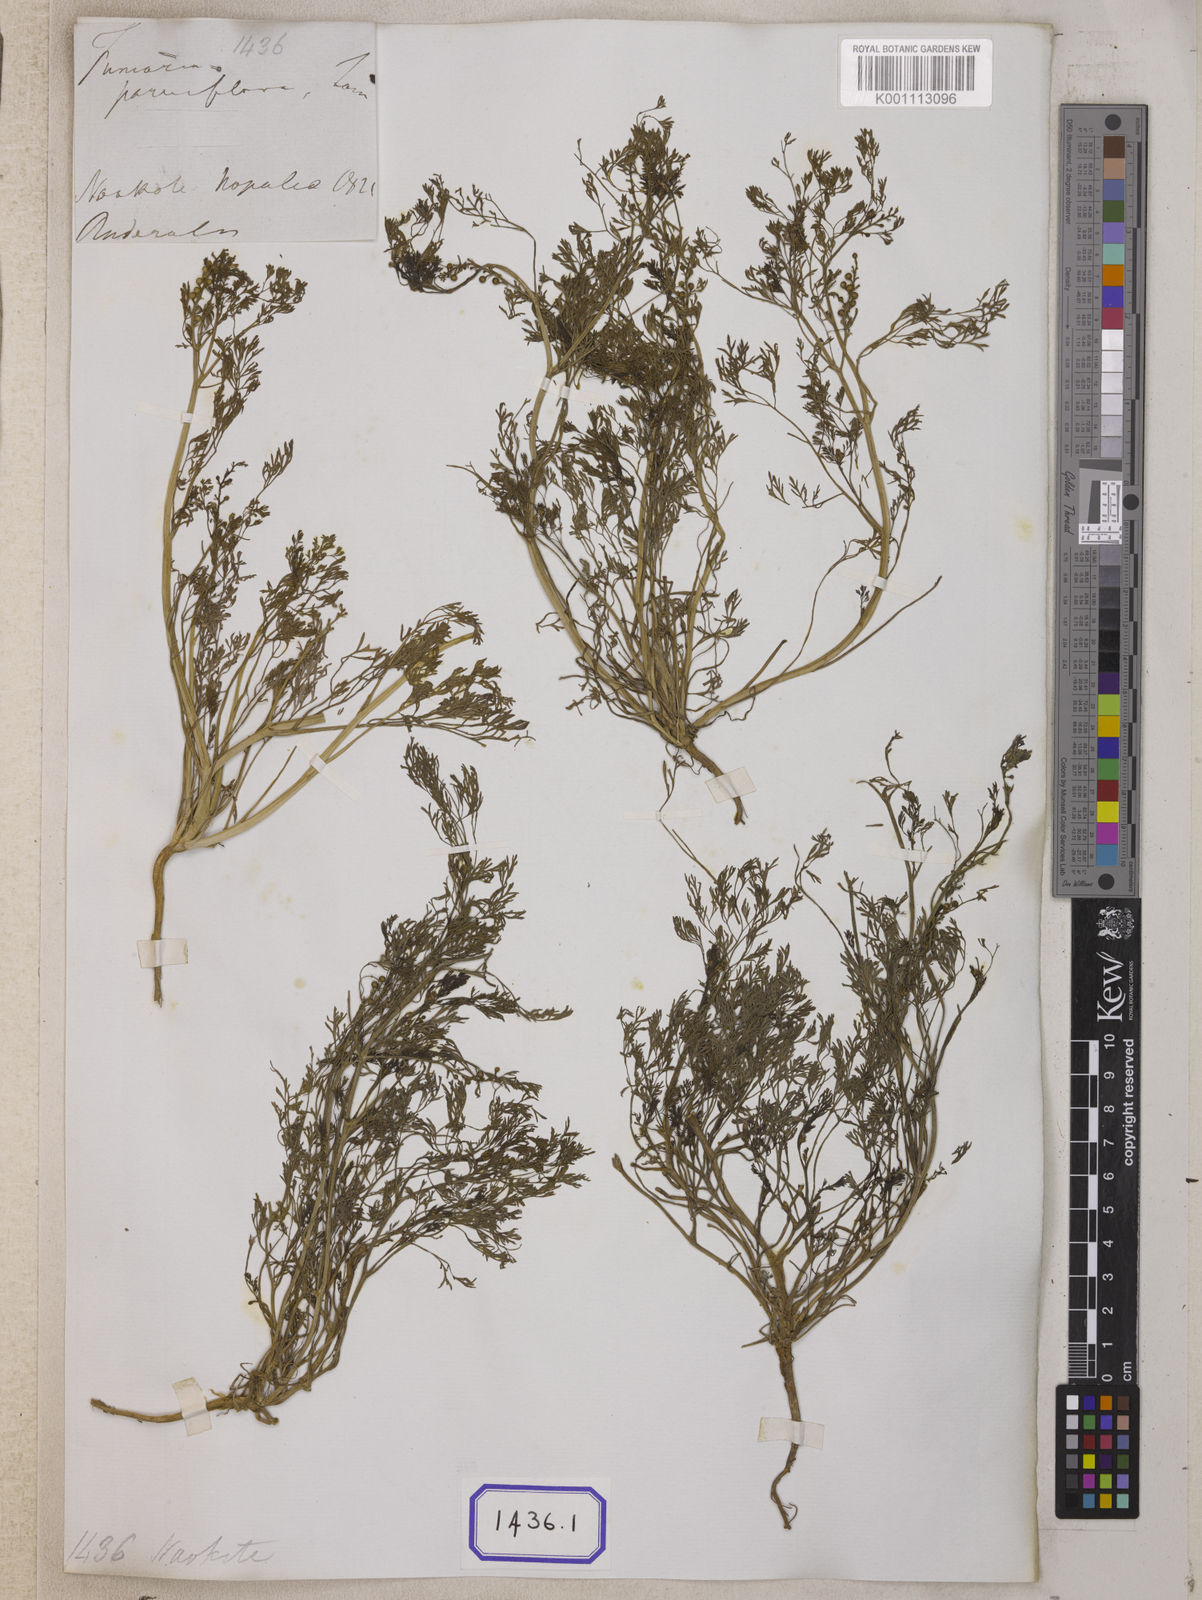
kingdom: Plantae
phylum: Tracheophyta
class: Magnoliopsida
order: Ranunculales
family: Papaveraceae
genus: Fumaria
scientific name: Fumaria parviflora
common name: Fine-leaved fumitory
